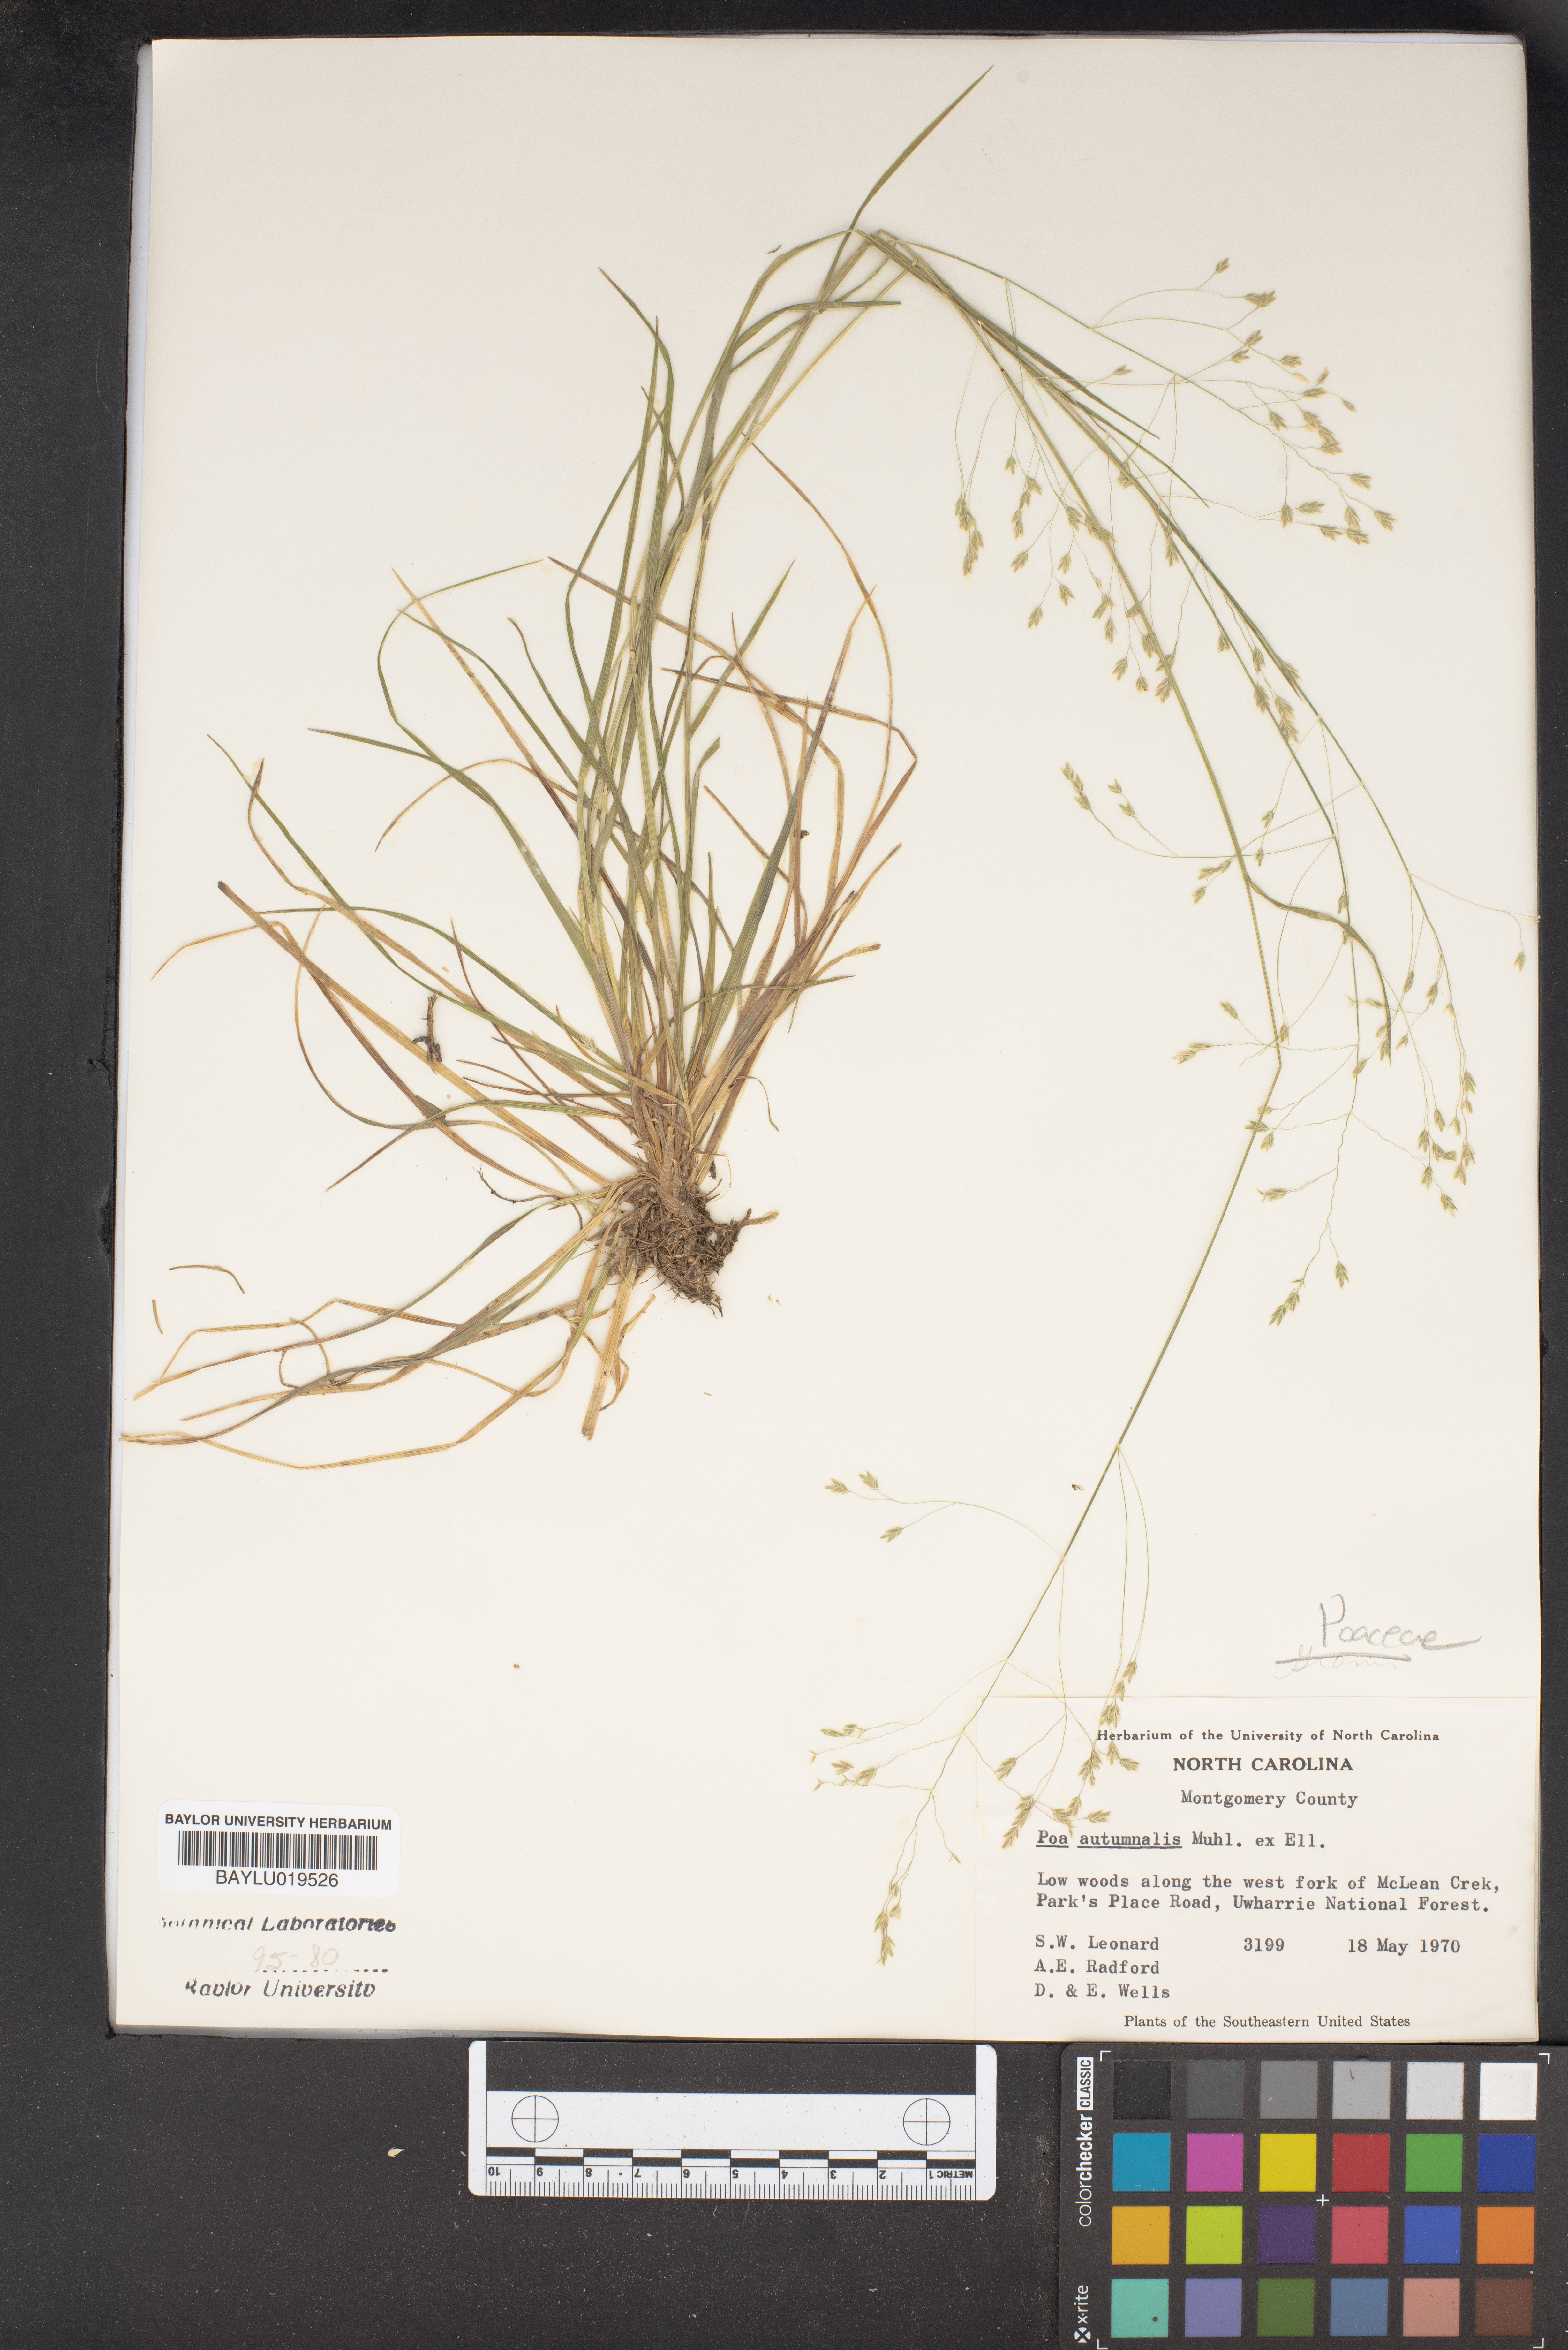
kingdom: Plantae
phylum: Tracheophyta
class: Liliopsida
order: Poales
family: Poaceae
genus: Poa
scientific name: Poa autumnalis
